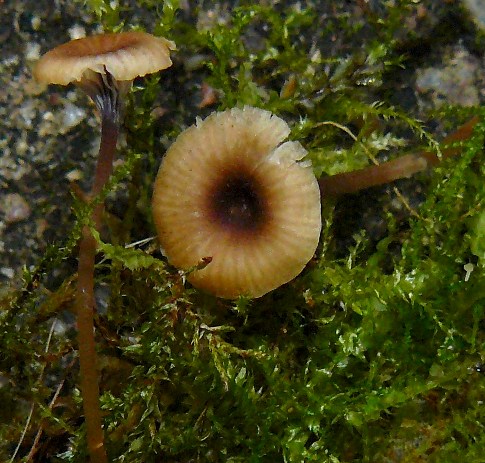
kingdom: Fungi
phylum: Basidiomycota
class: Agaricomycetes
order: Hymenochaetales
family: Rickenellaceae
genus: Rickenella
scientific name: Rickenella swartzii
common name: finstokket mosnavlehat
